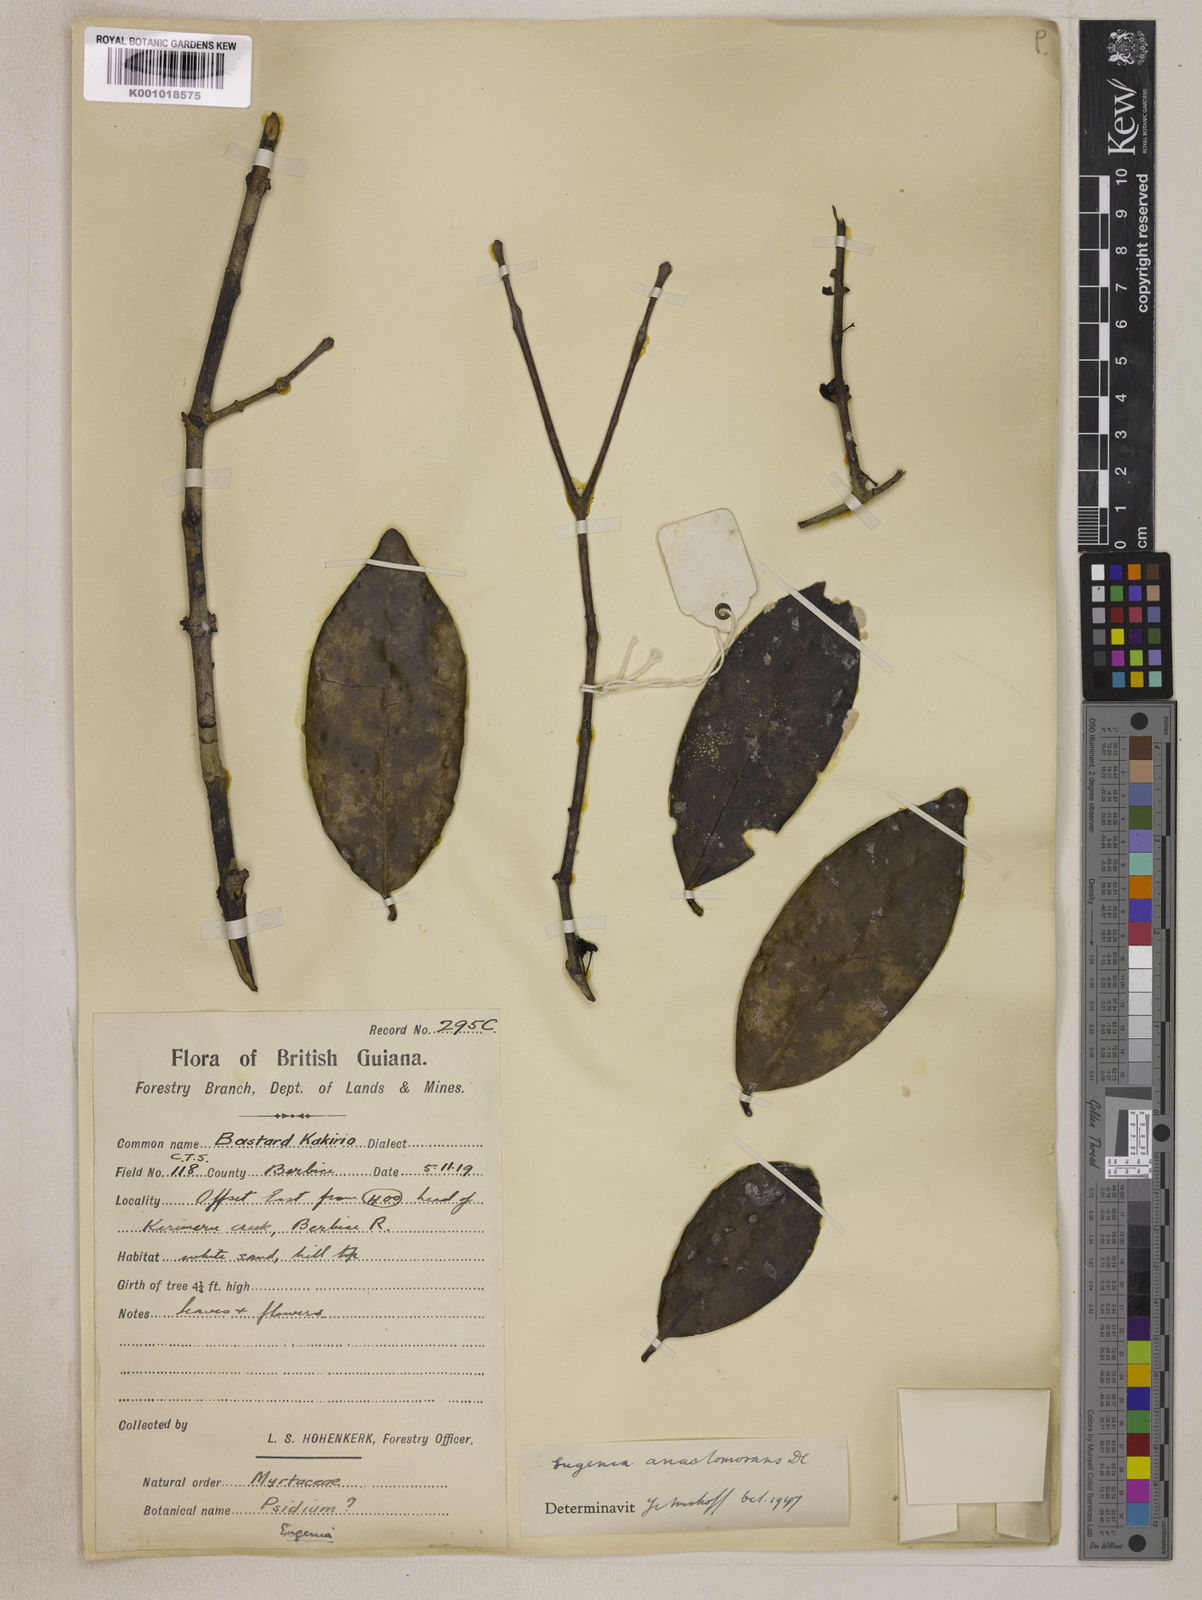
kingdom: Plantae
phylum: Tracheophyta
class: Magnoliopsida
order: Myrtales
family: Myrtaceae
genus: Eugenia
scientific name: Eugenia anastomosans
